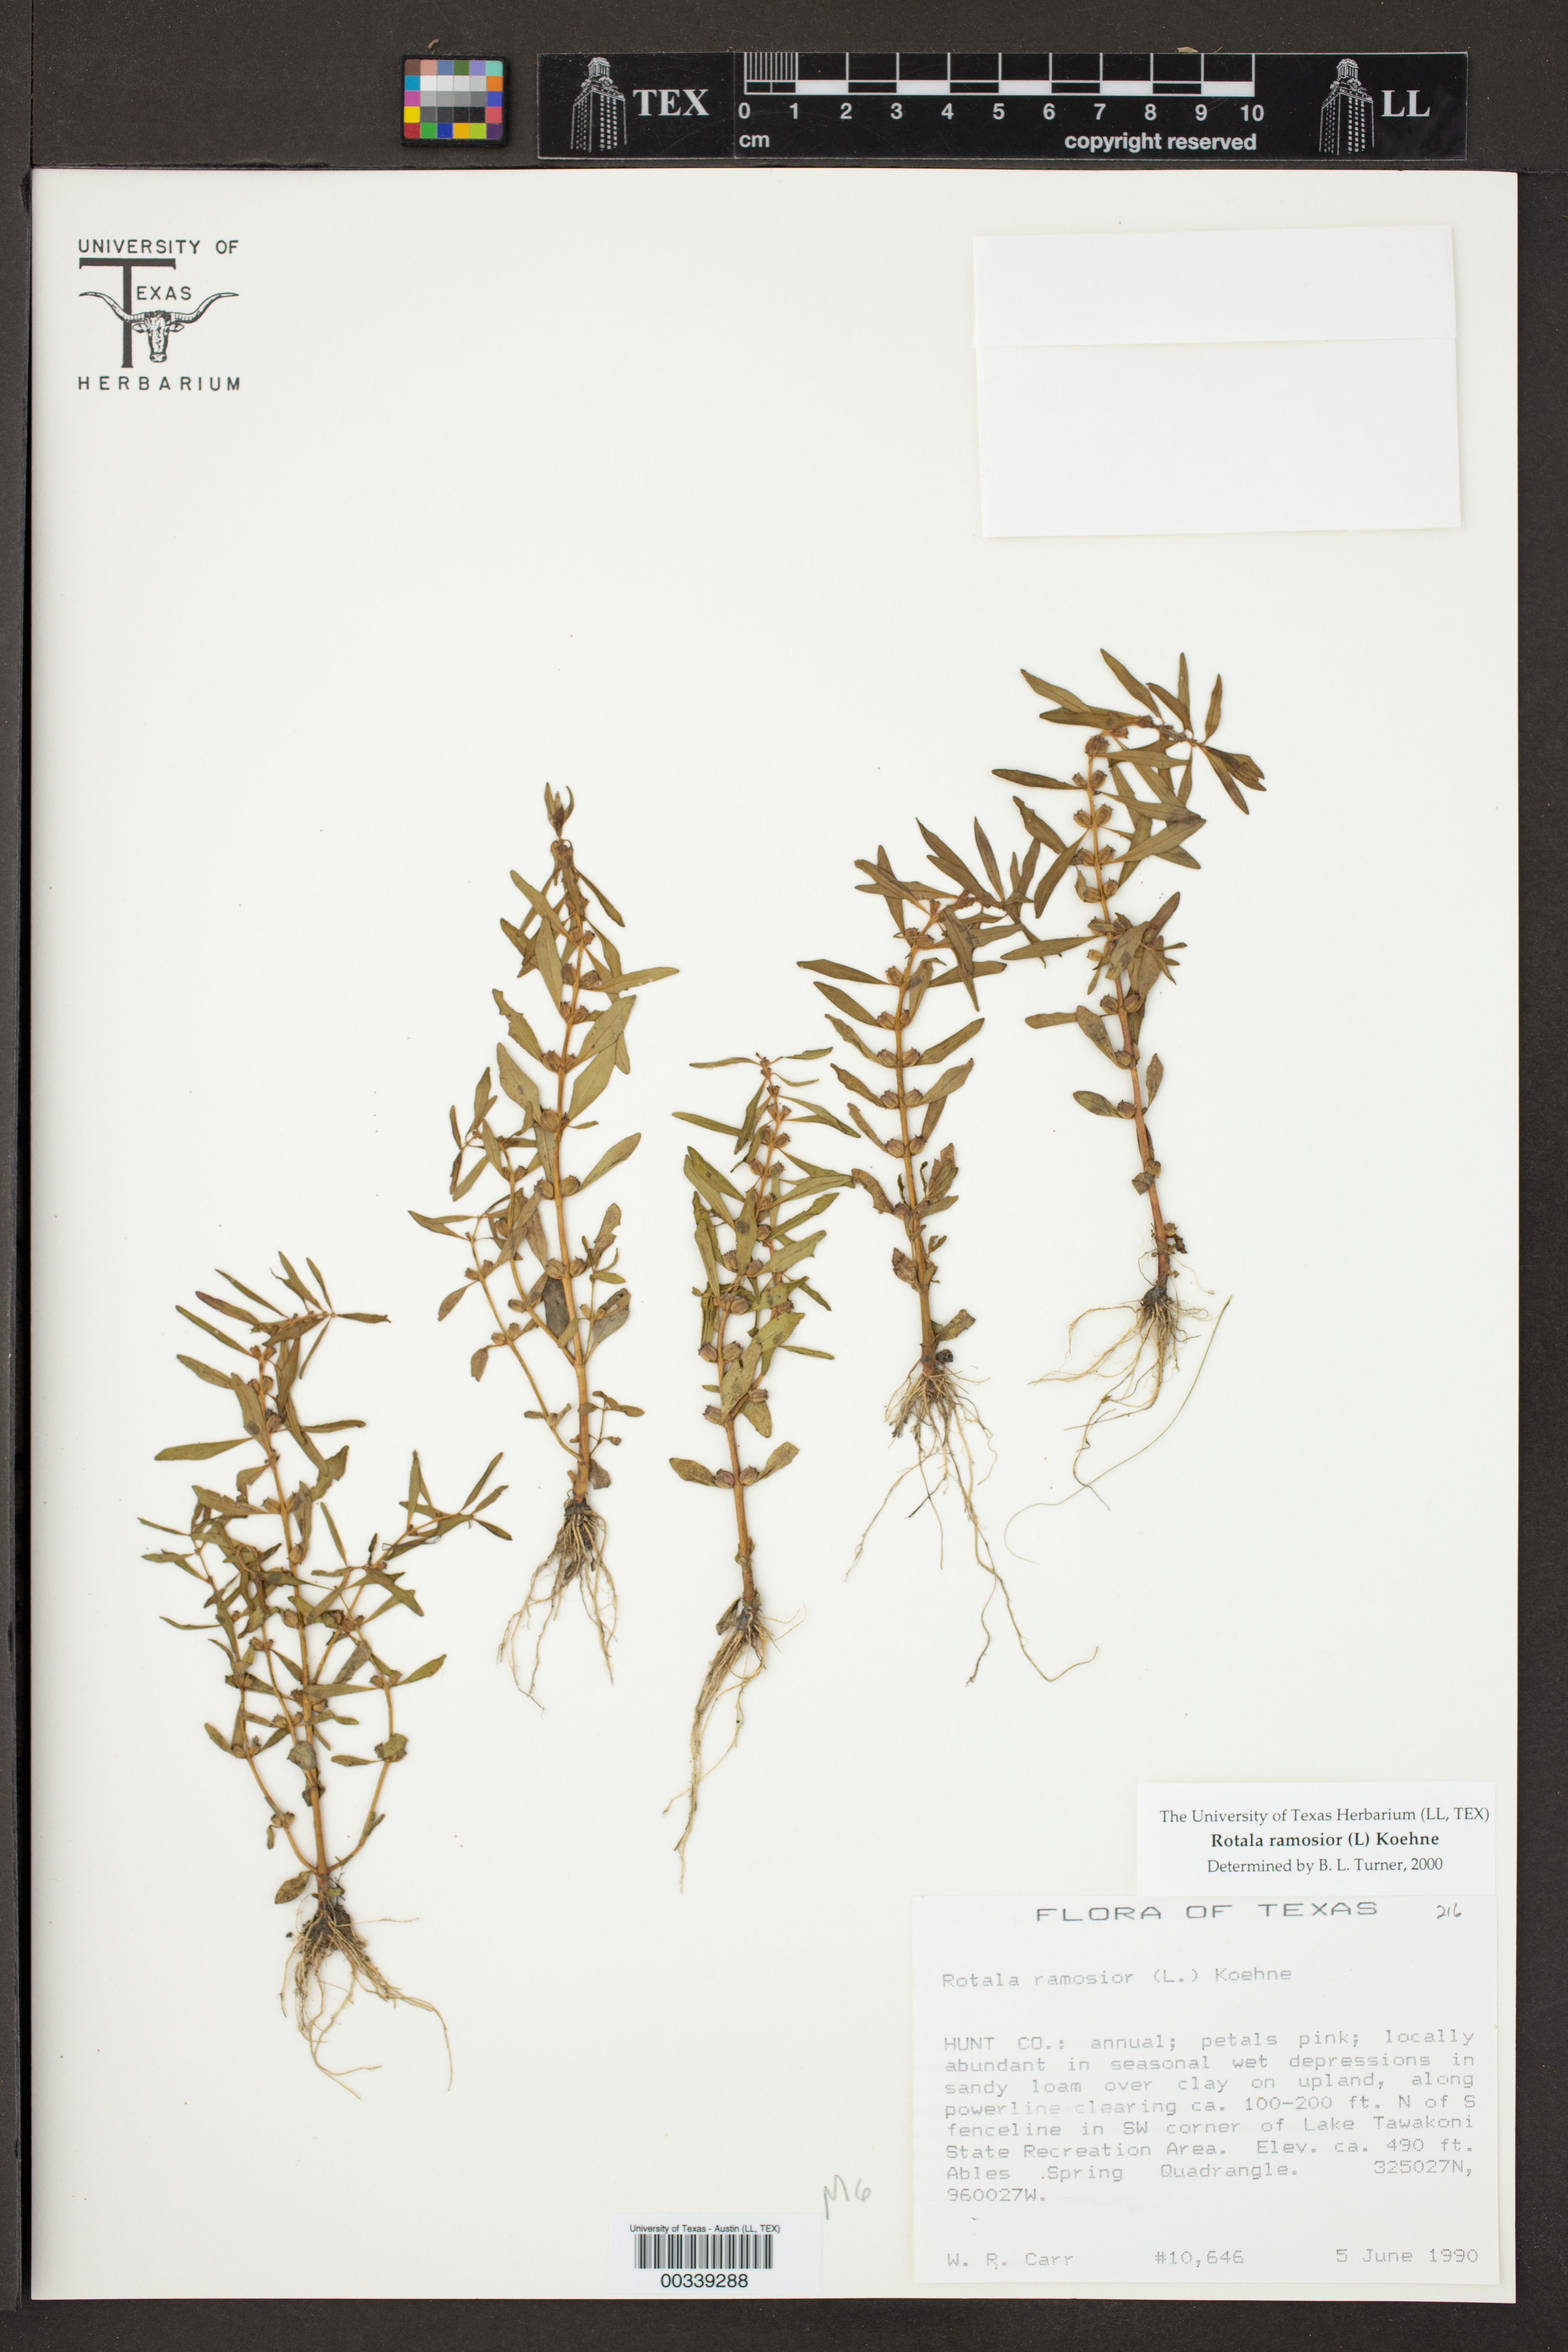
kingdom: Plantae
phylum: Tracheophyta
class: Magnoliopsida
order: Myrtales
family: Lythraceae
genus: Rotala
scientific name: Rotala ramosior
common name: Lowland rotala
